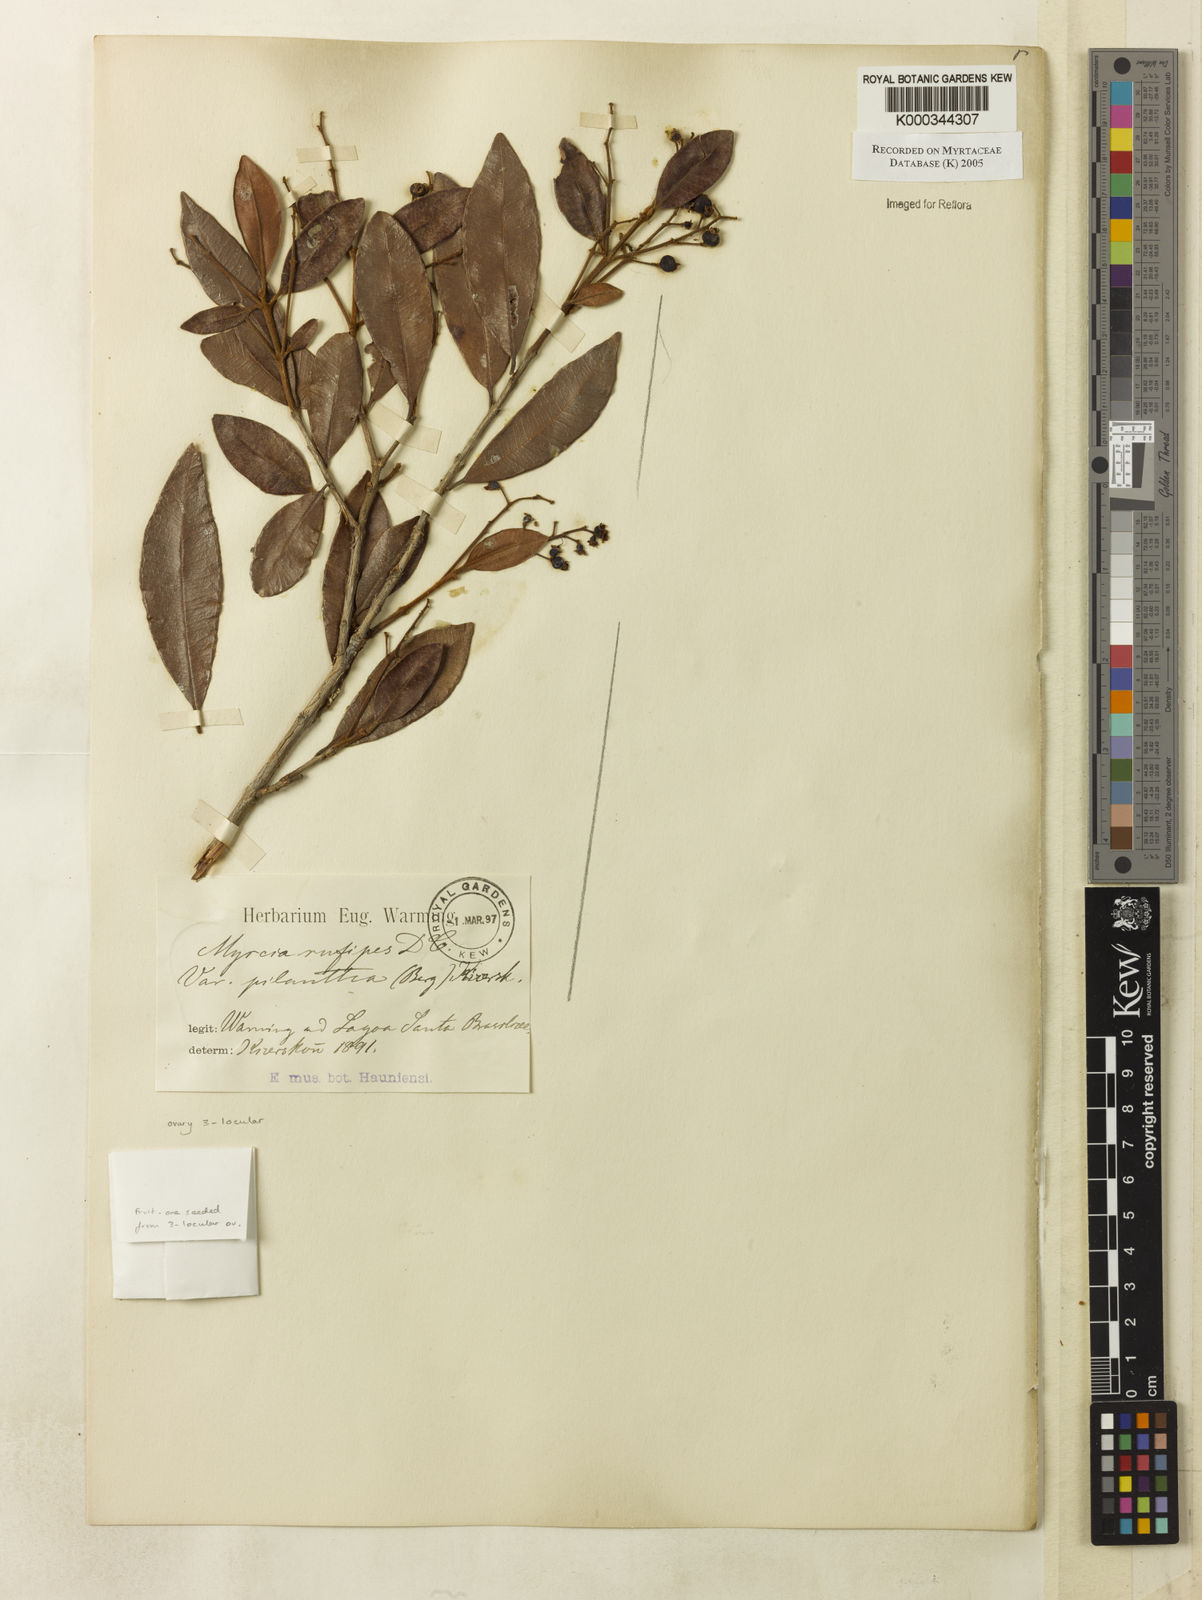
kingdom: Plantae
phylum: Tracheophyta
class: Magnoliopsida
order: Myrtales
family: Myrtaceae
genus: Myrcia
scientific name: Myrcia rufipes
